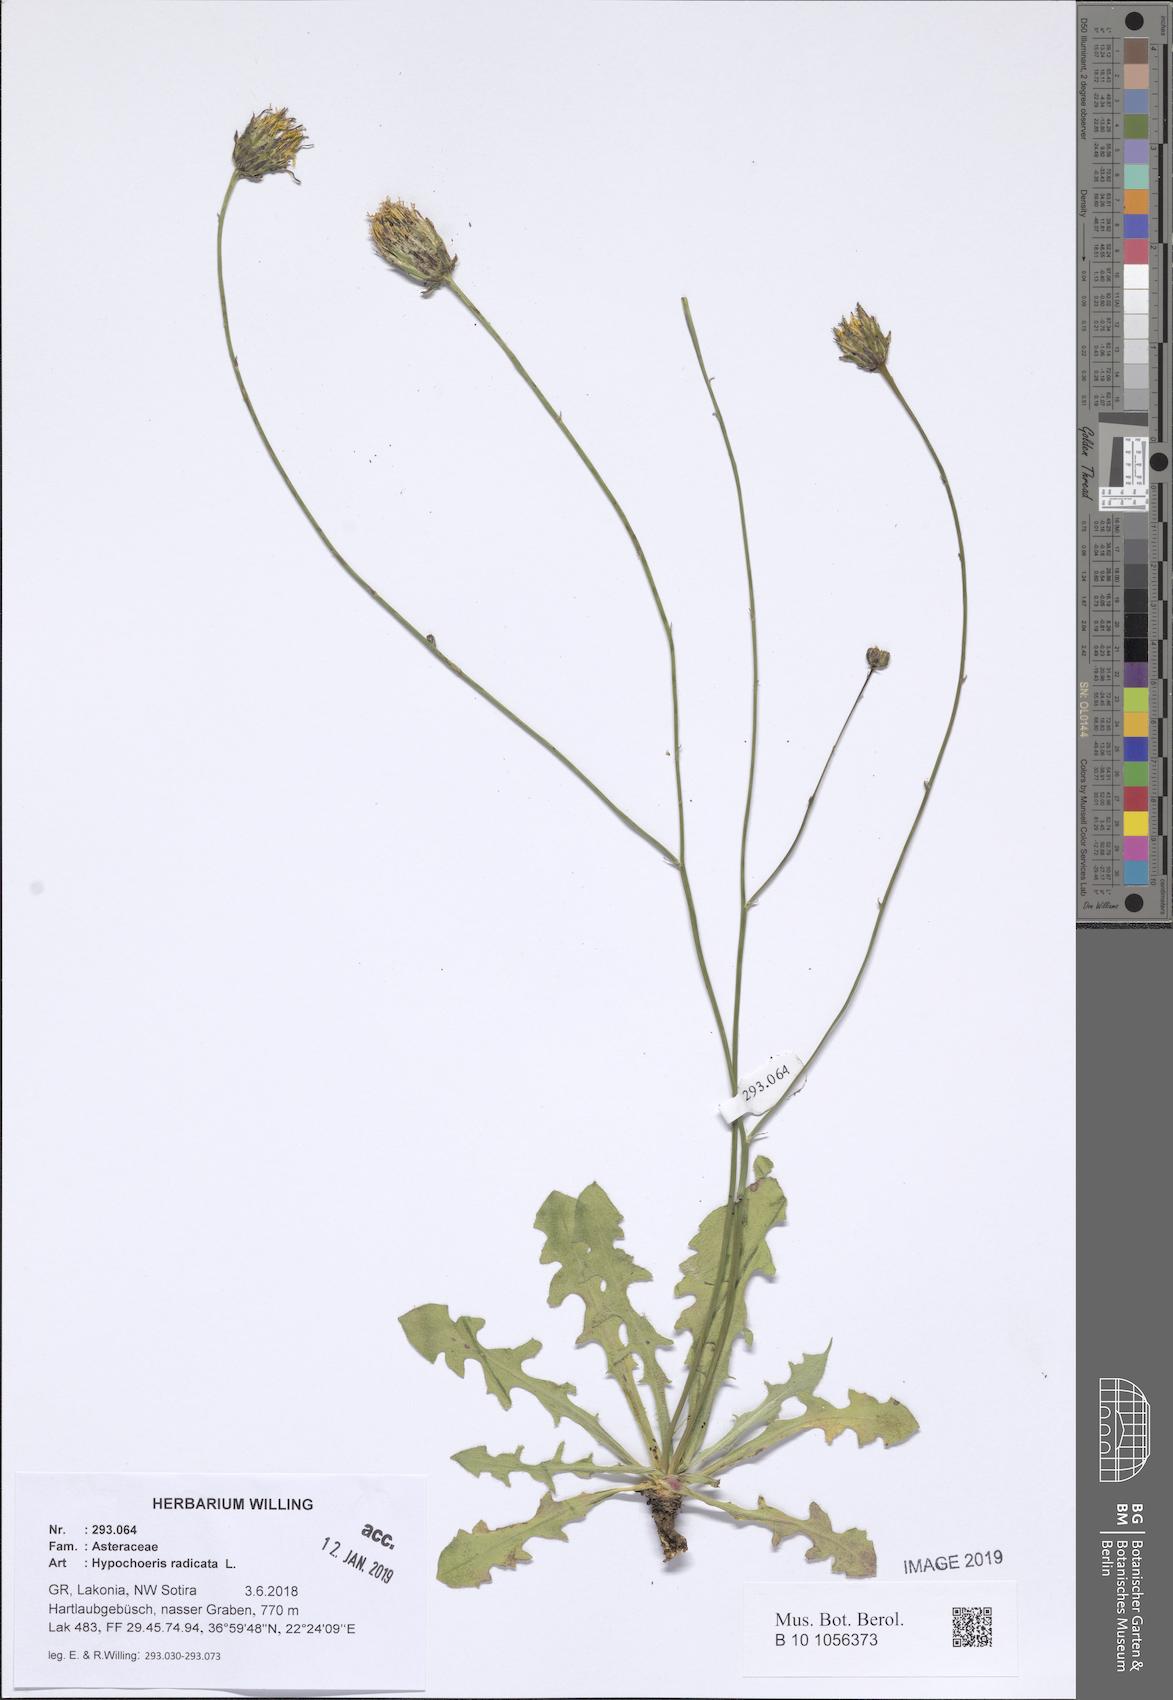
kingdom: Plantae
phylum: Tracheophyta
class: Magnoliopsida
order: Asterales
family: Asteraceae
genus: Hypochaeris
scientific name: Hypochaeris radicata
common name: Flatweed
